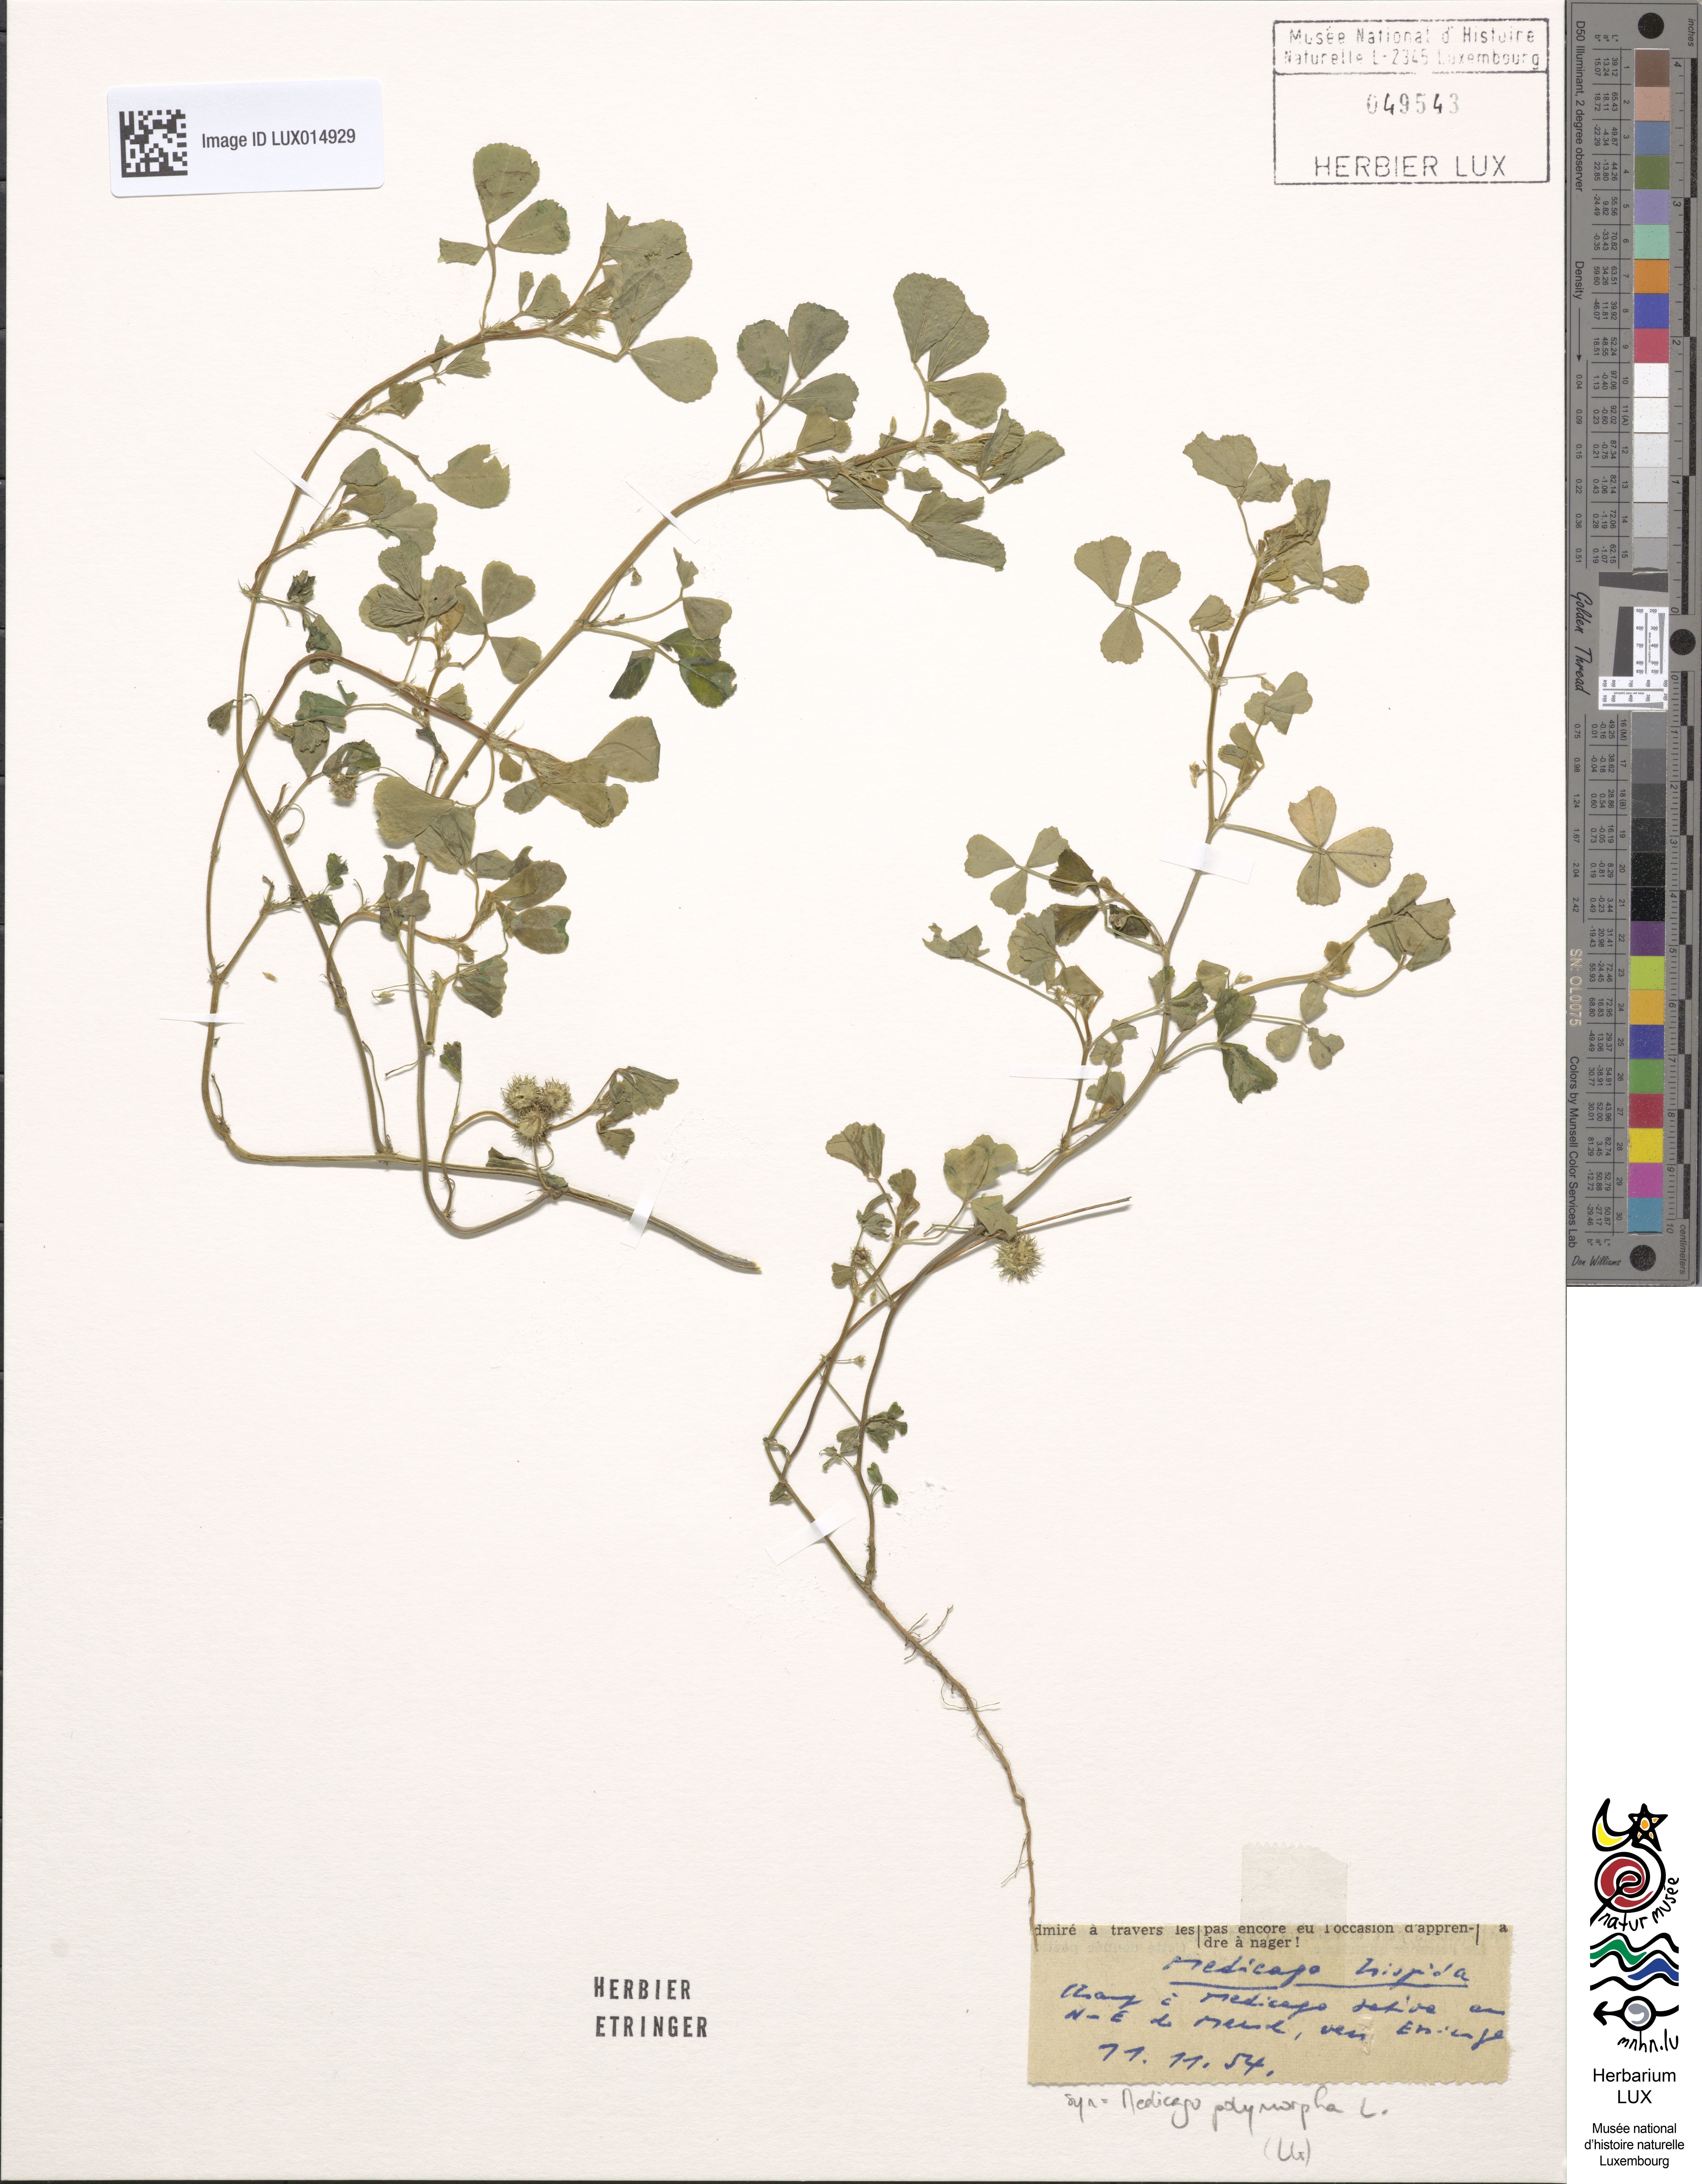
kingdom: Plantae
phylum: Tracheophyta
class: Magnoliopsida
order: Fabales
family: Fabaceae
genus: Medicago
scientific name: Medicago polymorpha
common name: Burclover
